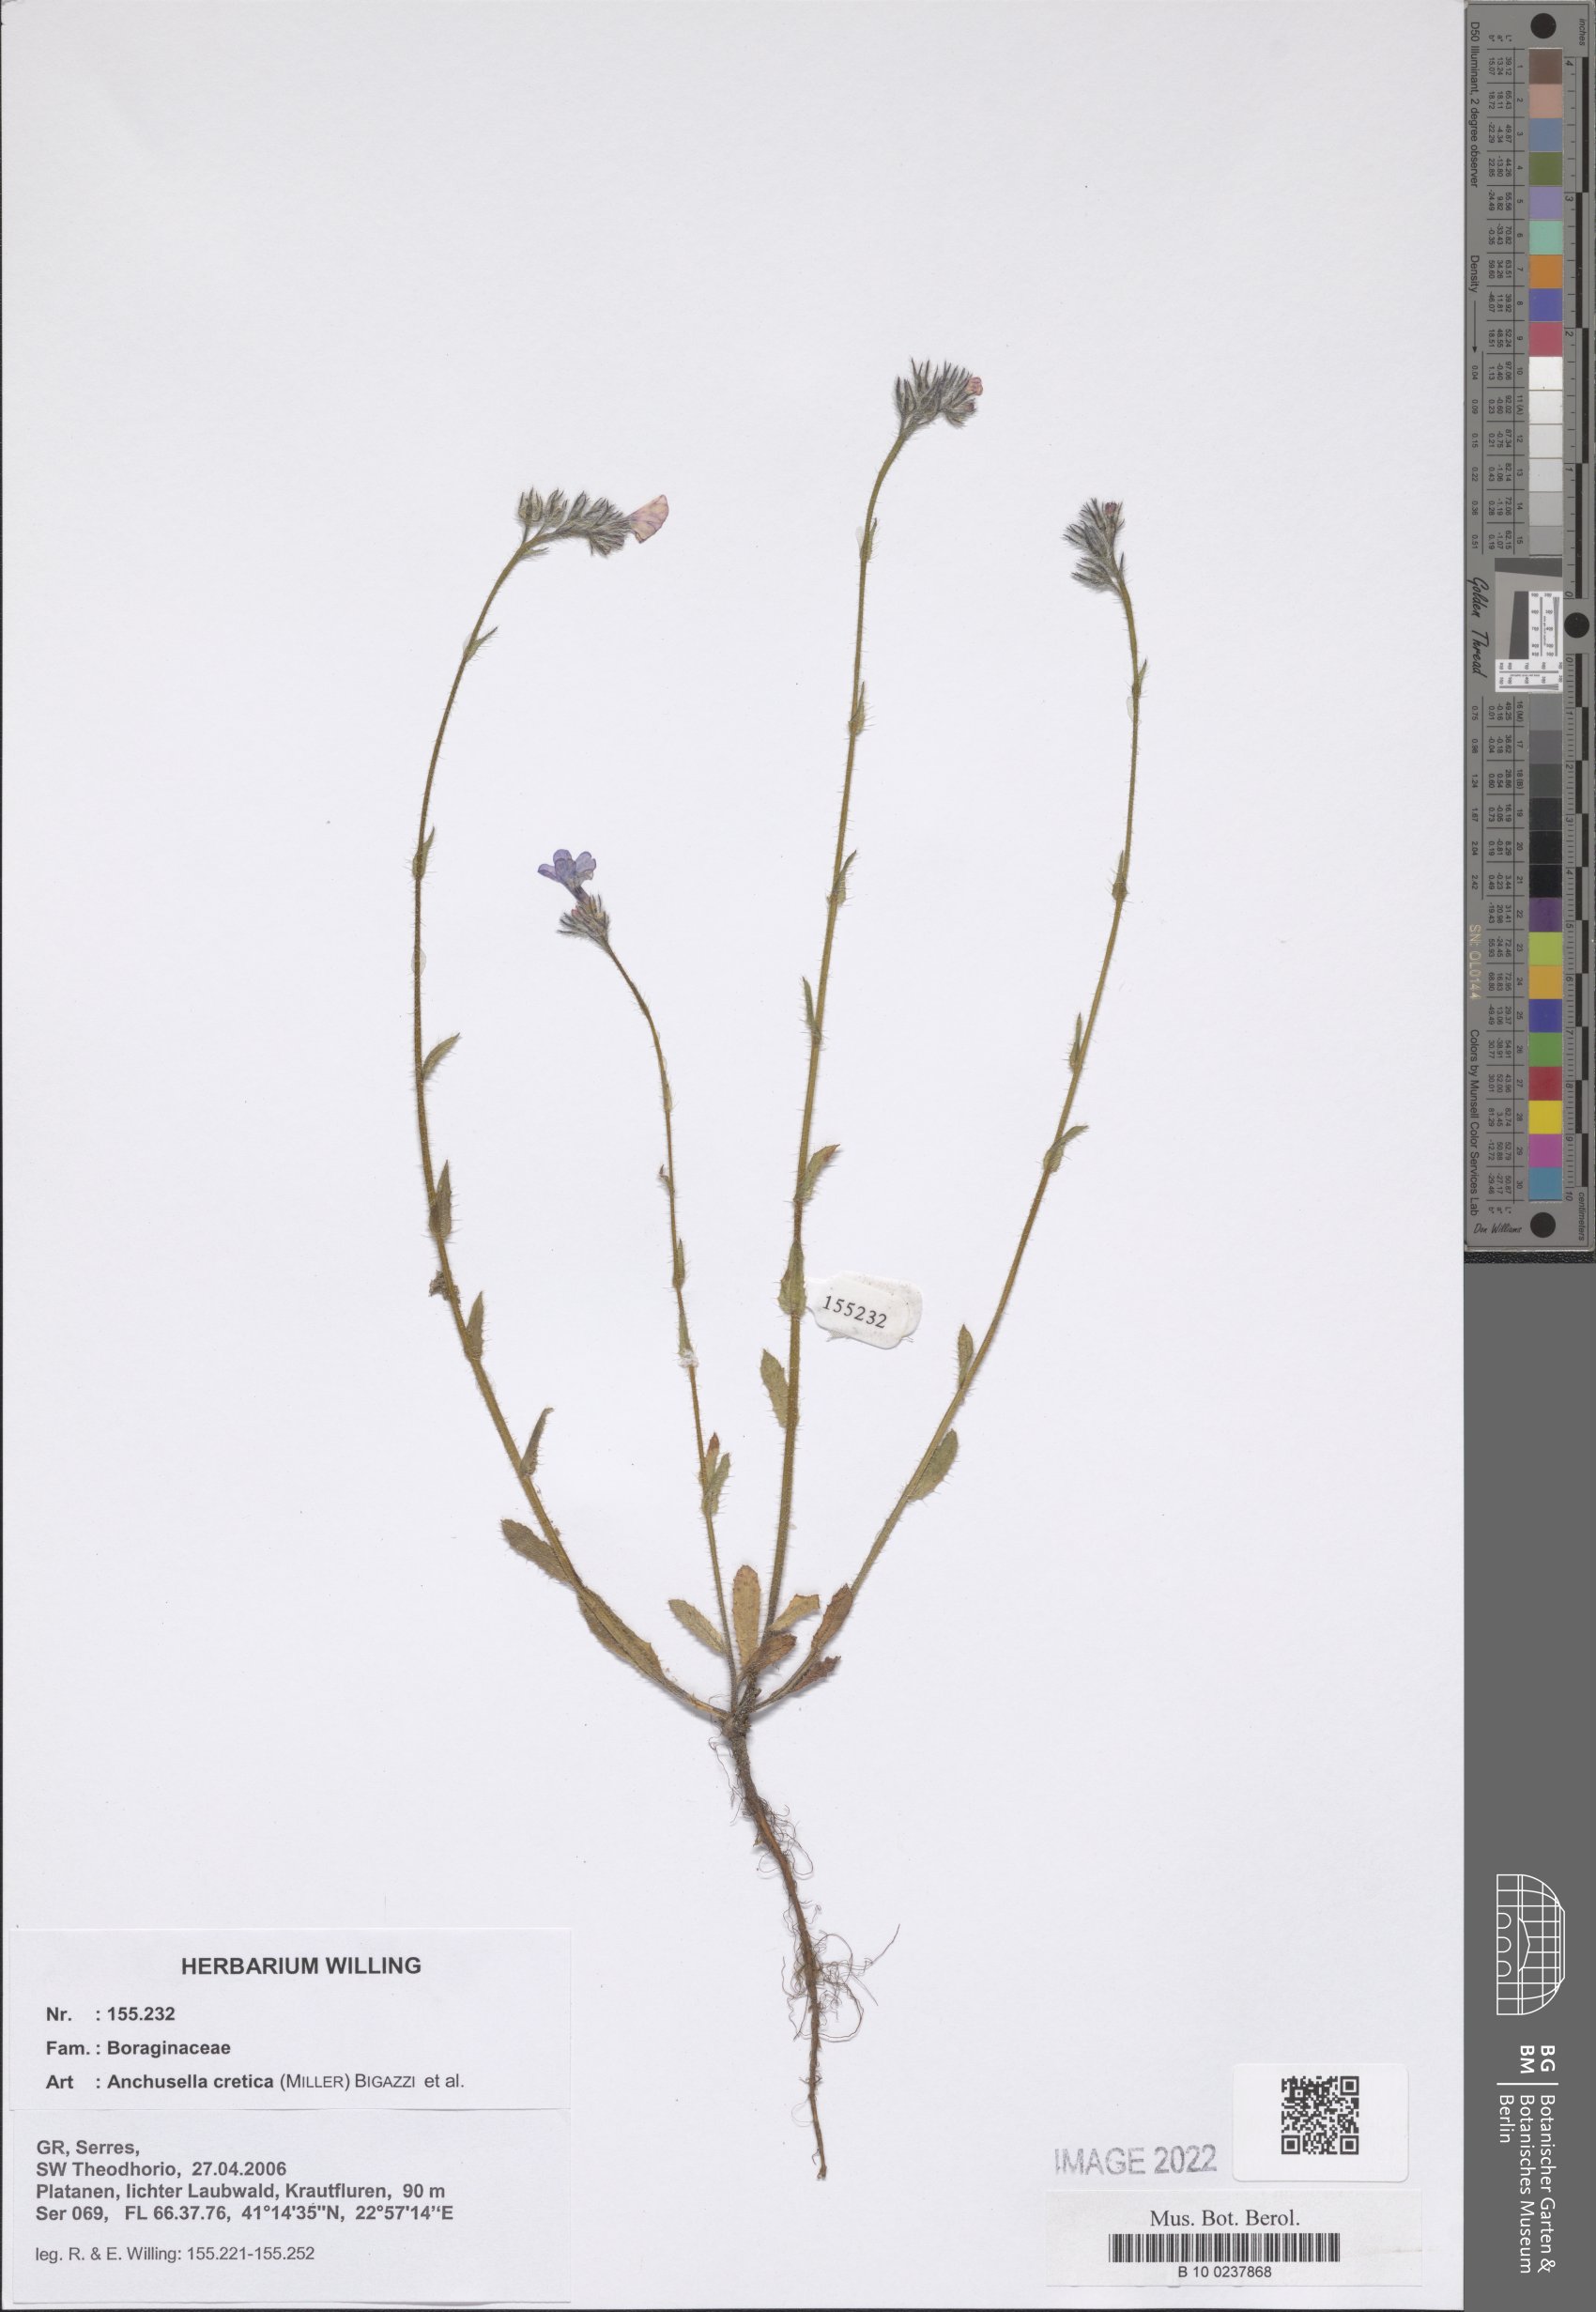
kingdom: Plantae
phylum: Tracheophyta
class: Magnoliopsida
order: Boraginales
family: Boraginaceae
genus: Lycopsis
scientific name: Lycopsis arvensis
